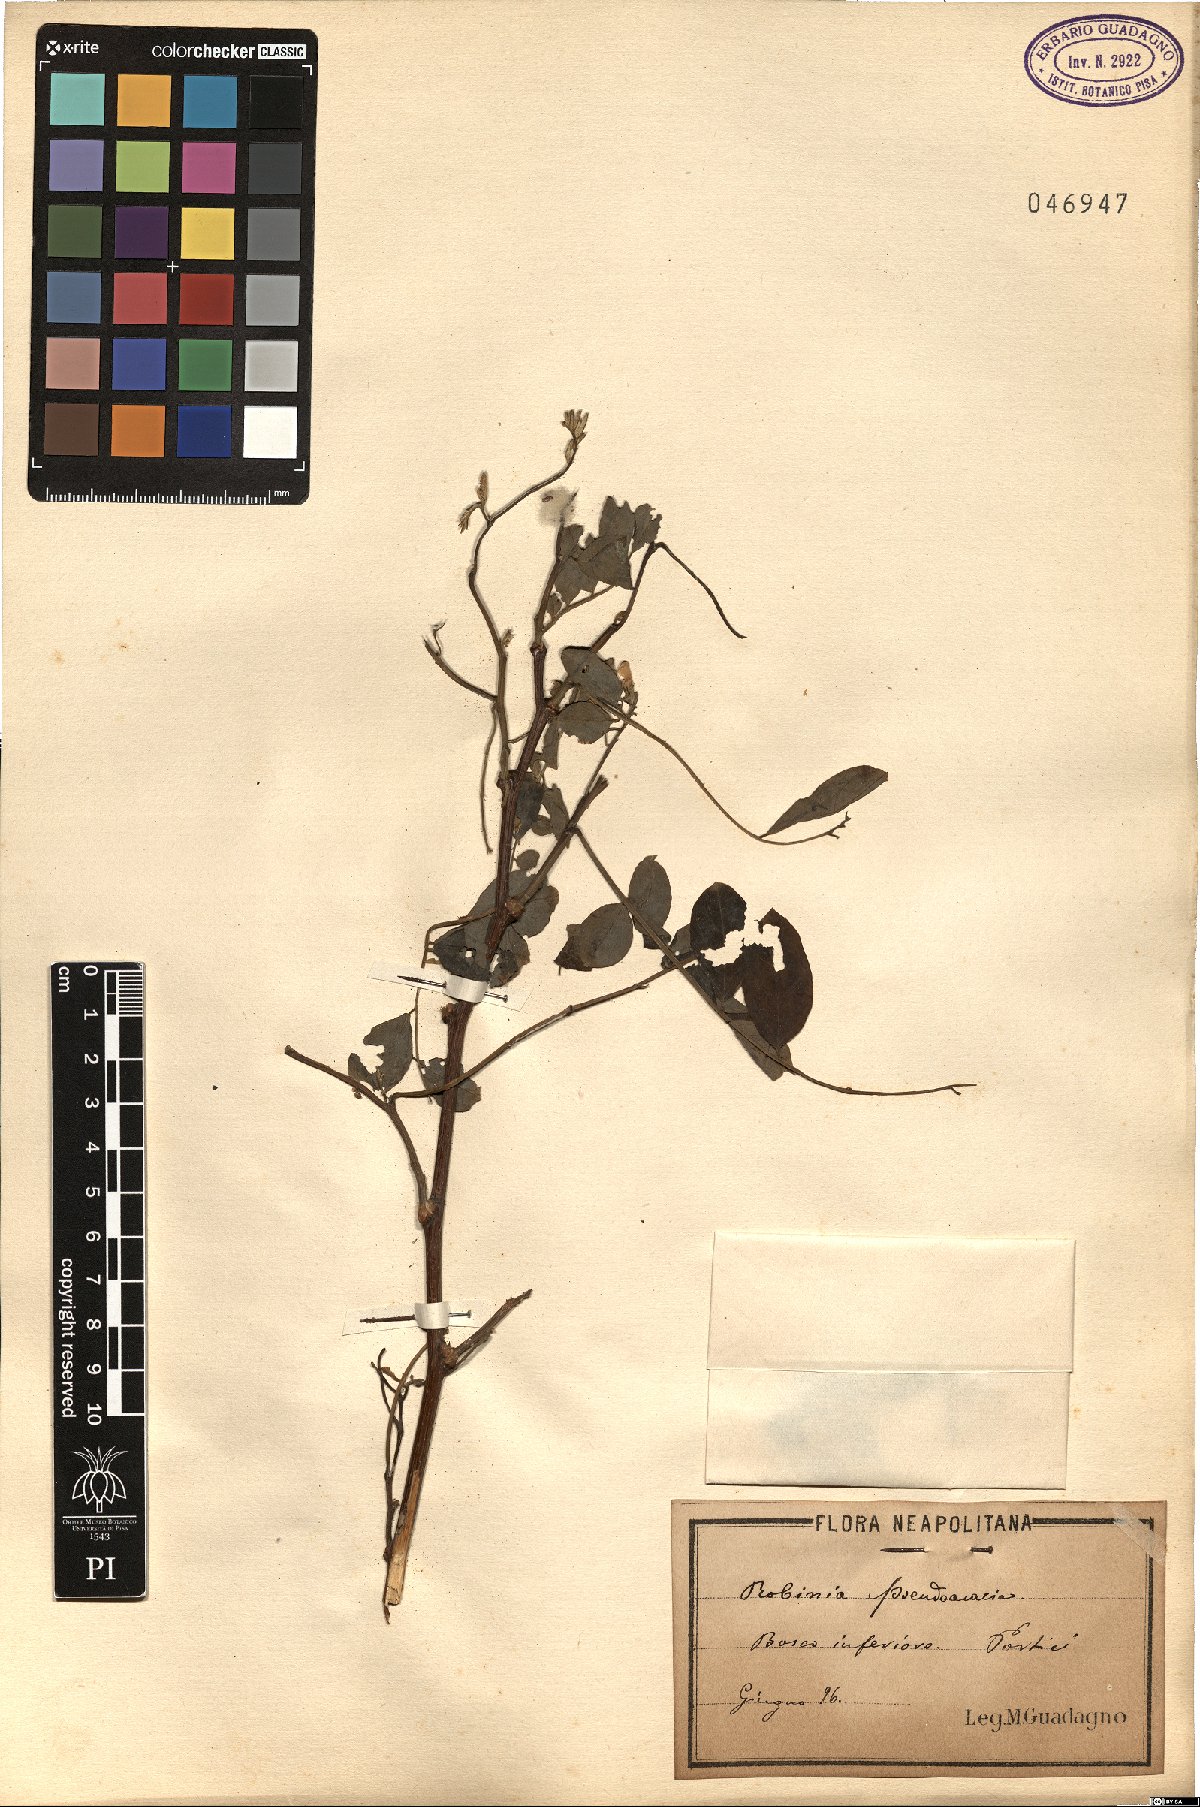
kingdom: Plantae
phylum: Tracheophyta
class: Magnoliopsida
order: Fabales
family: Fabaceae
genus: Robinia
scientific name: Robinia pseudoacacia
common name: Black locust
